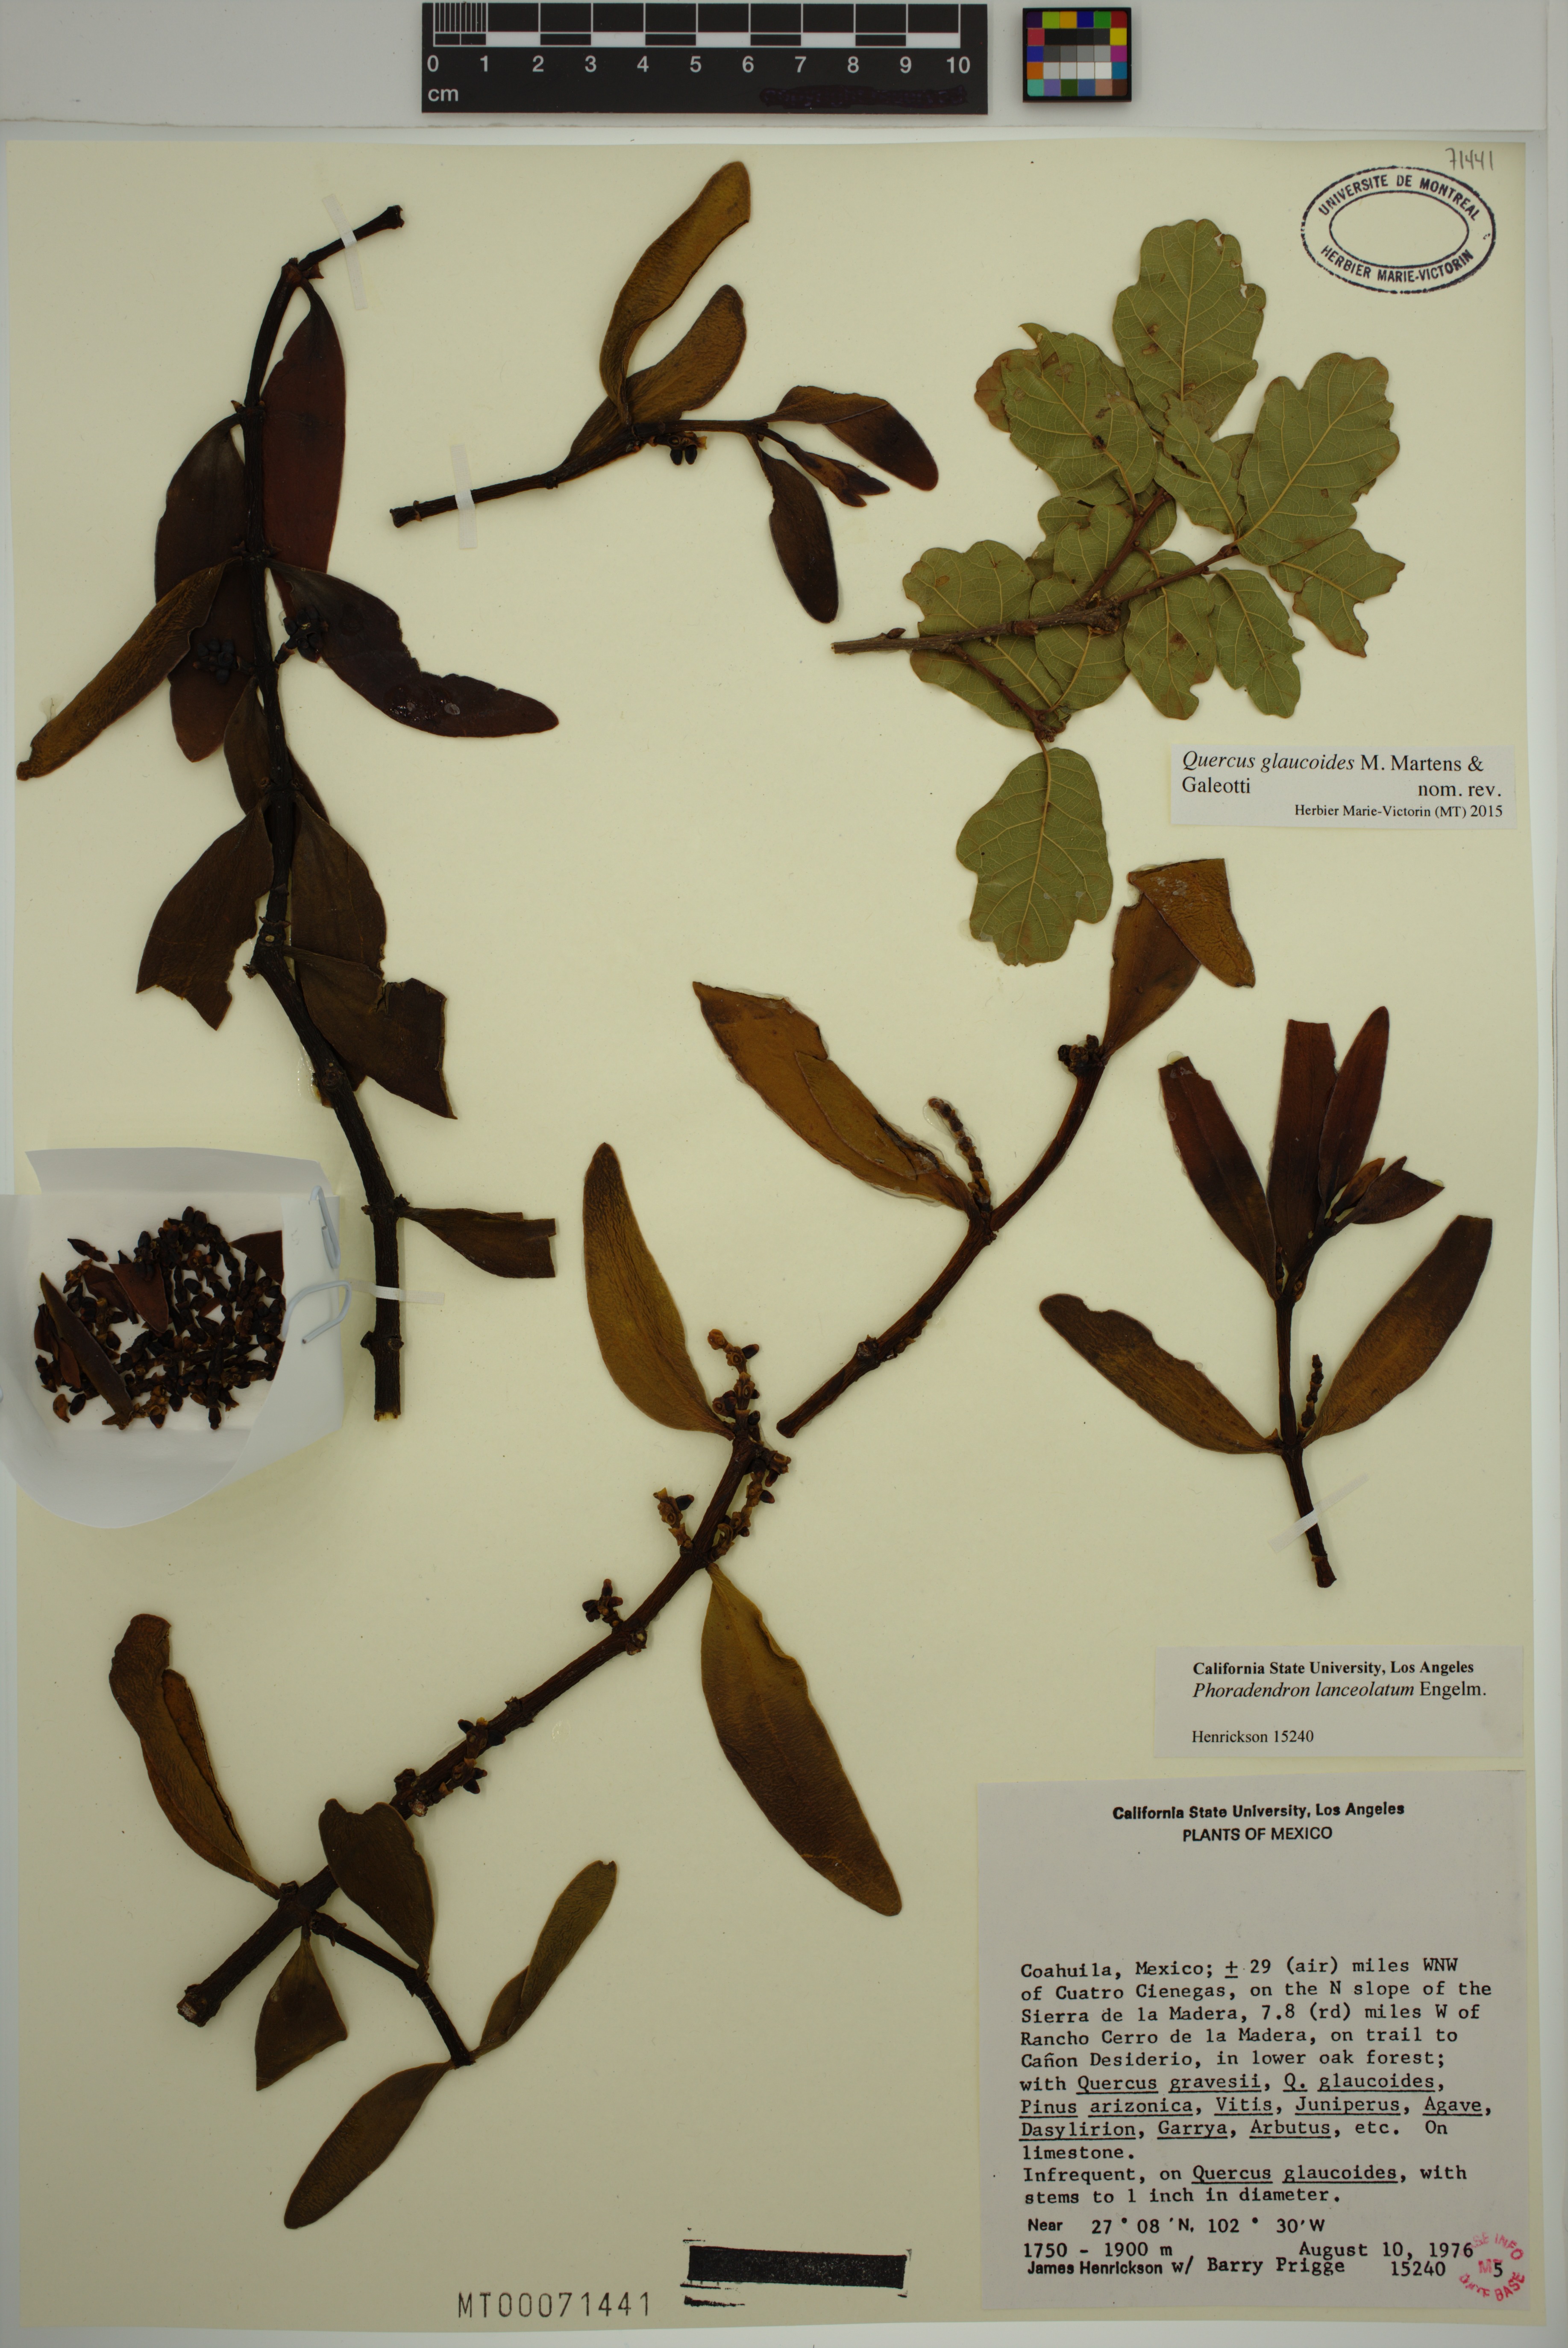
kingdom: Plantae
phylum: Tracheophyta
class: Magnoliopsida
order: Santalales
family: Viscaceae
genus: Phoradendron
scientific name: Phoradendron lanceolatum
